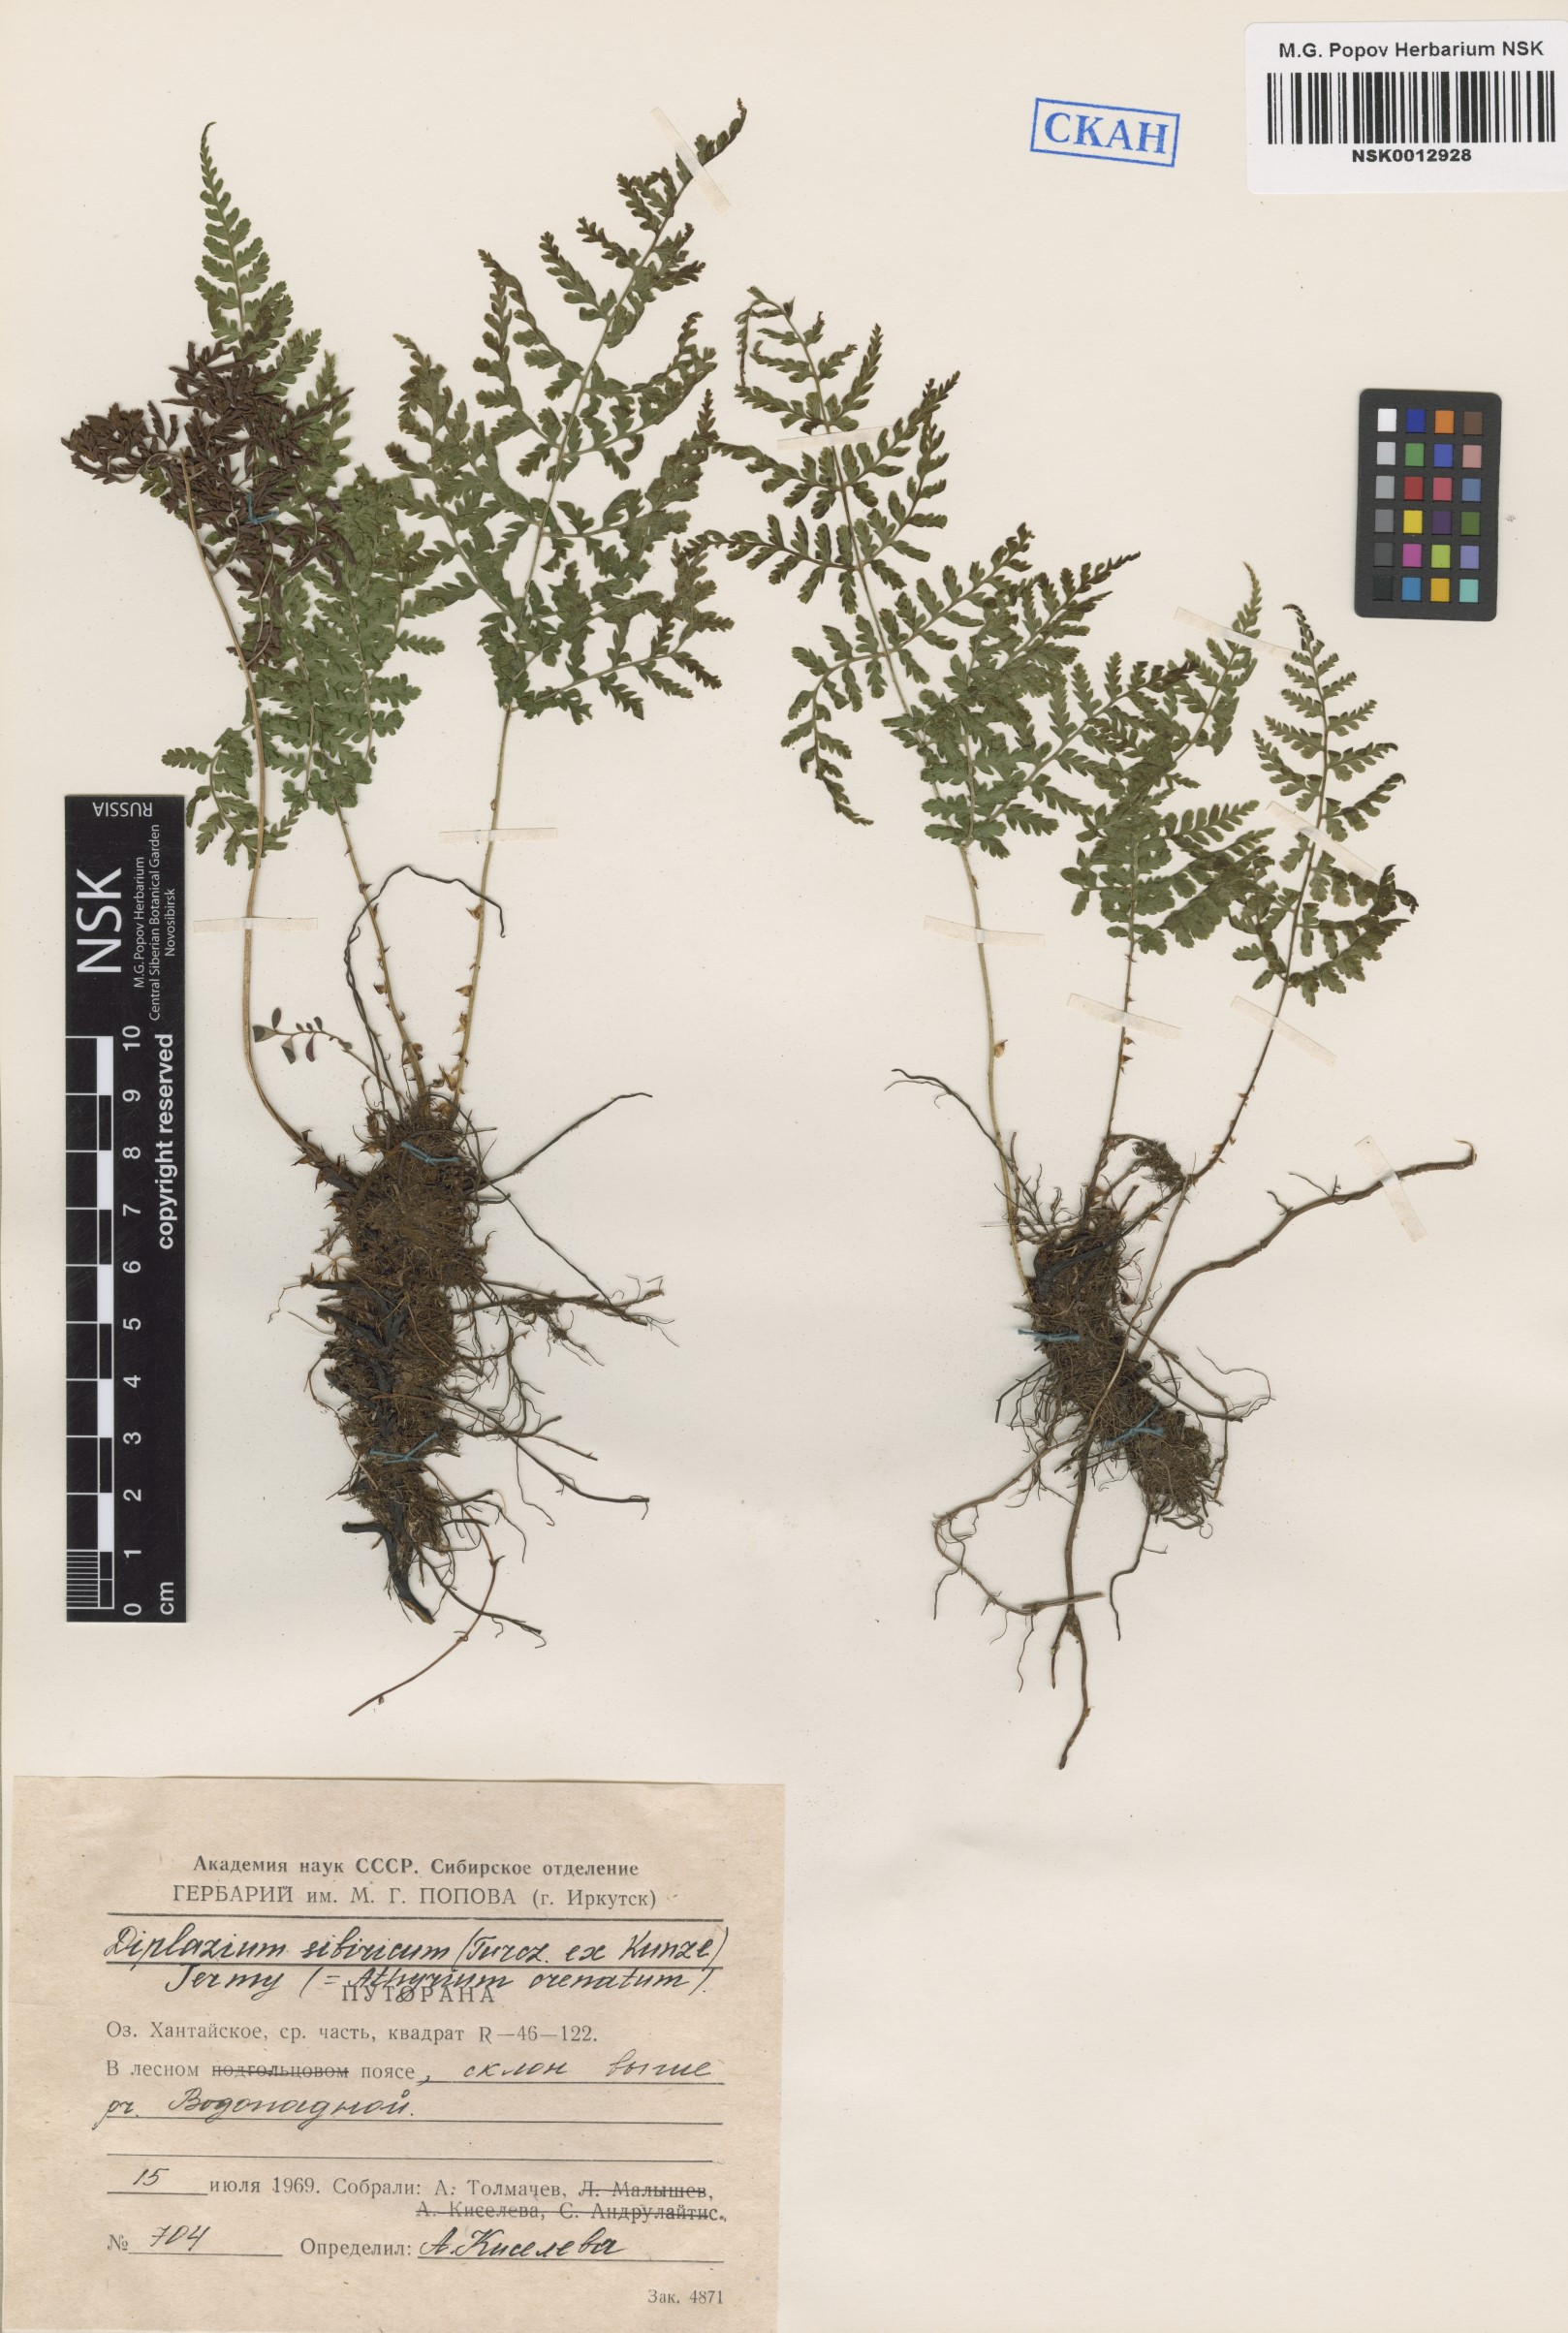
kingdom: Plantae
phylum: Tracheophyta
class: Polypodiopsida
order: Polypodiales
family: Athyriaceae
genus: Diplazium
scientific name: Diplazium sibiricum
